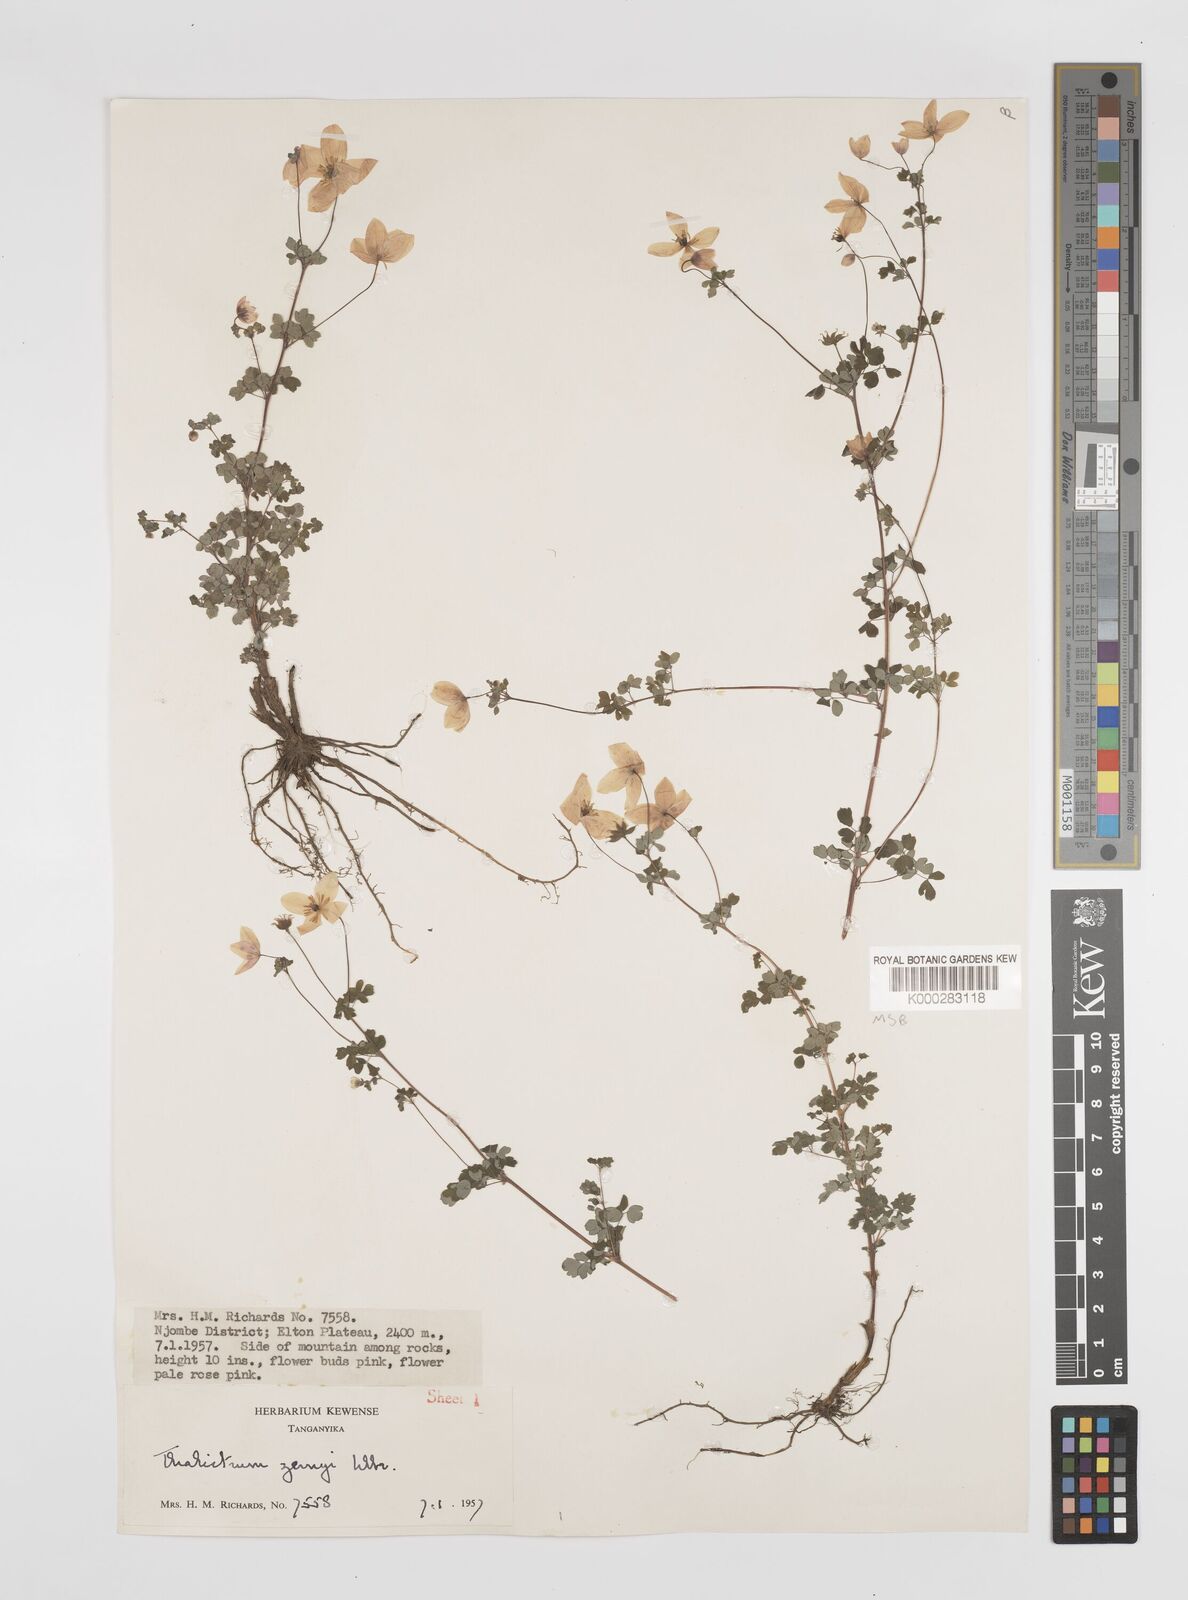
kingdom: Plantae
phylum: Tracheophyta
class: Magnoliopsida
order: Ranunculales
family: Ranunculaceae
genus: Thalictrum
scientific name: Thalictrum zernyi
